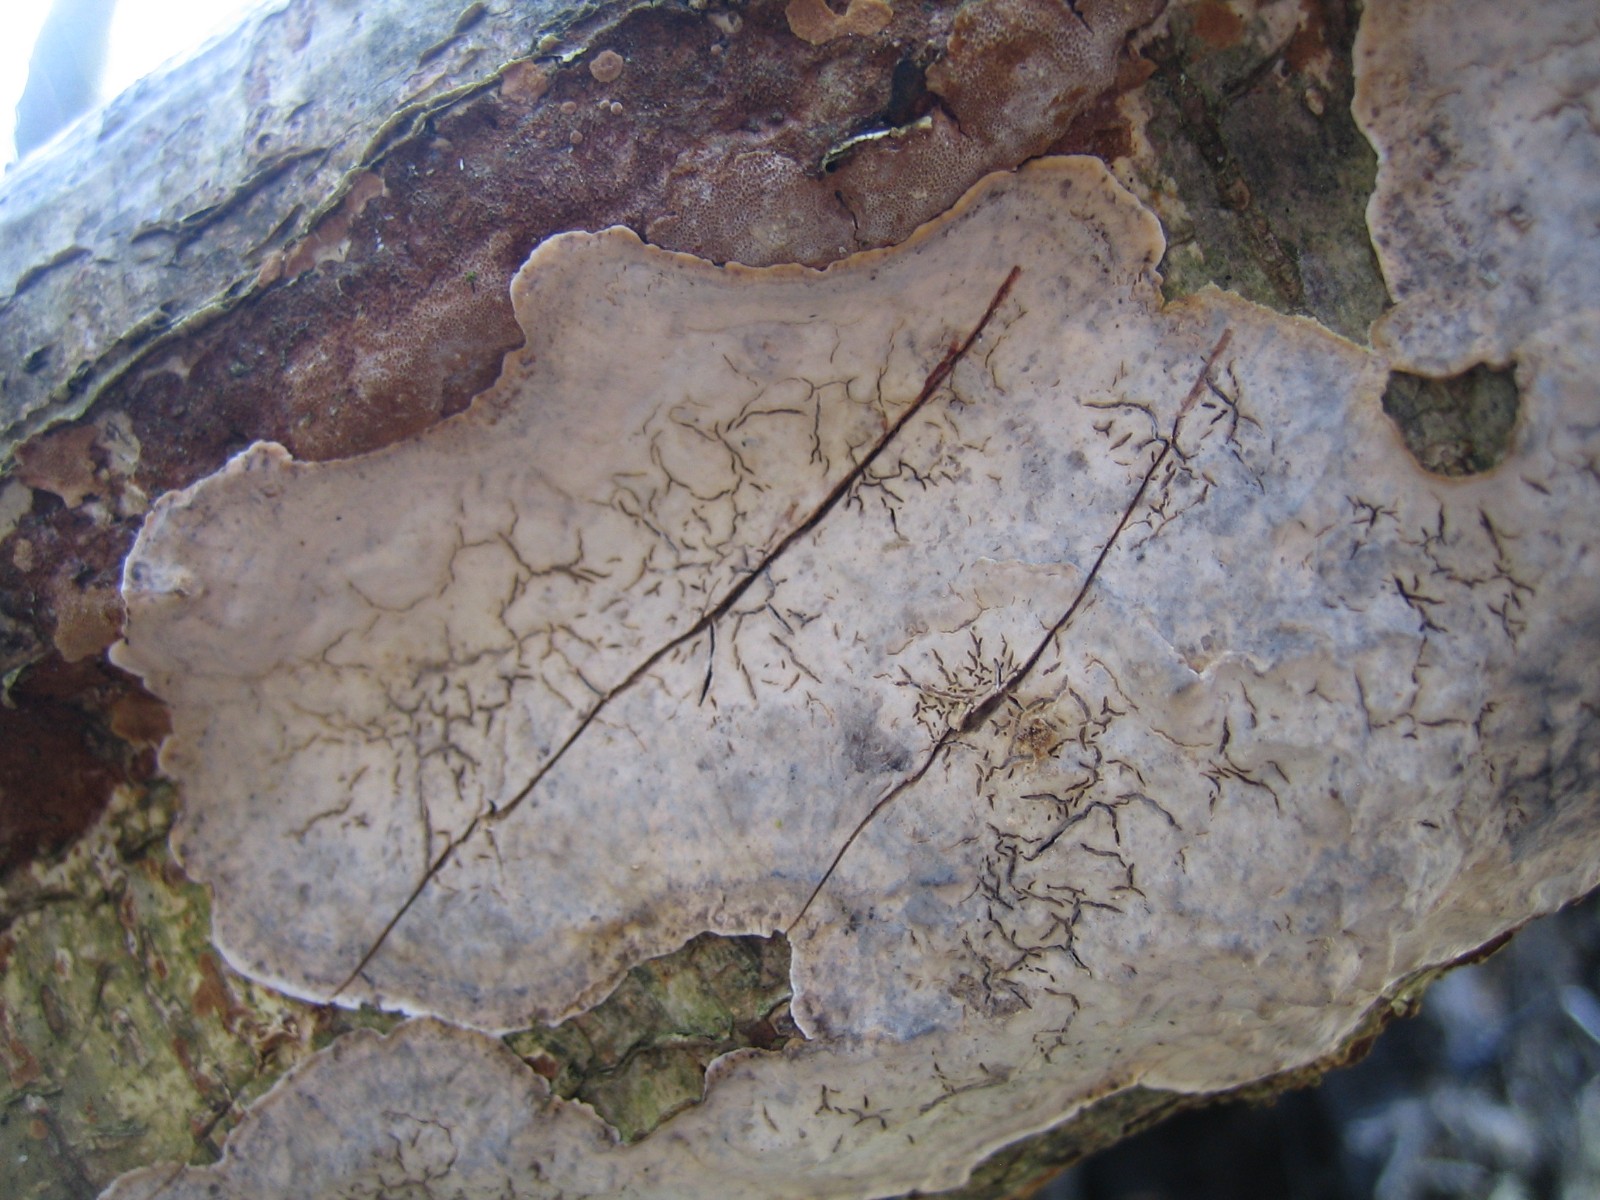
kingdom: Fungi
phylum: Basidiomycota
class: Agaricomycetes
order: Russulales
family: Stereaceae
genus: Stereum
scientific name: Stereum rugosum
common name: rynket lædersvamp
